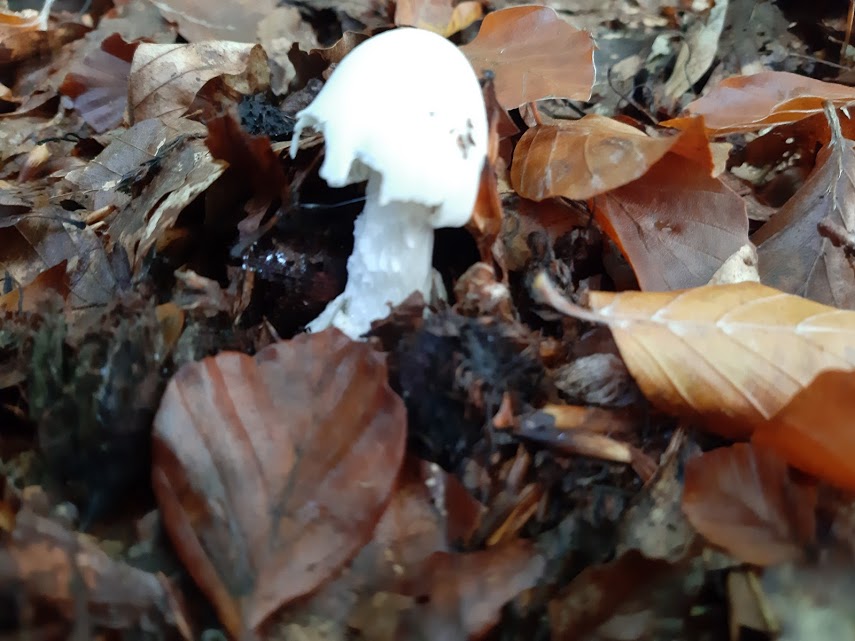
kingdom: Fungi
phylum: Basidiomycota
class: Agaricomycetes
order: Agaricales
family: Amanitaceae
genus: Amanita
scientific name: Amanita virosa
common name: snehvid fluesvamp
